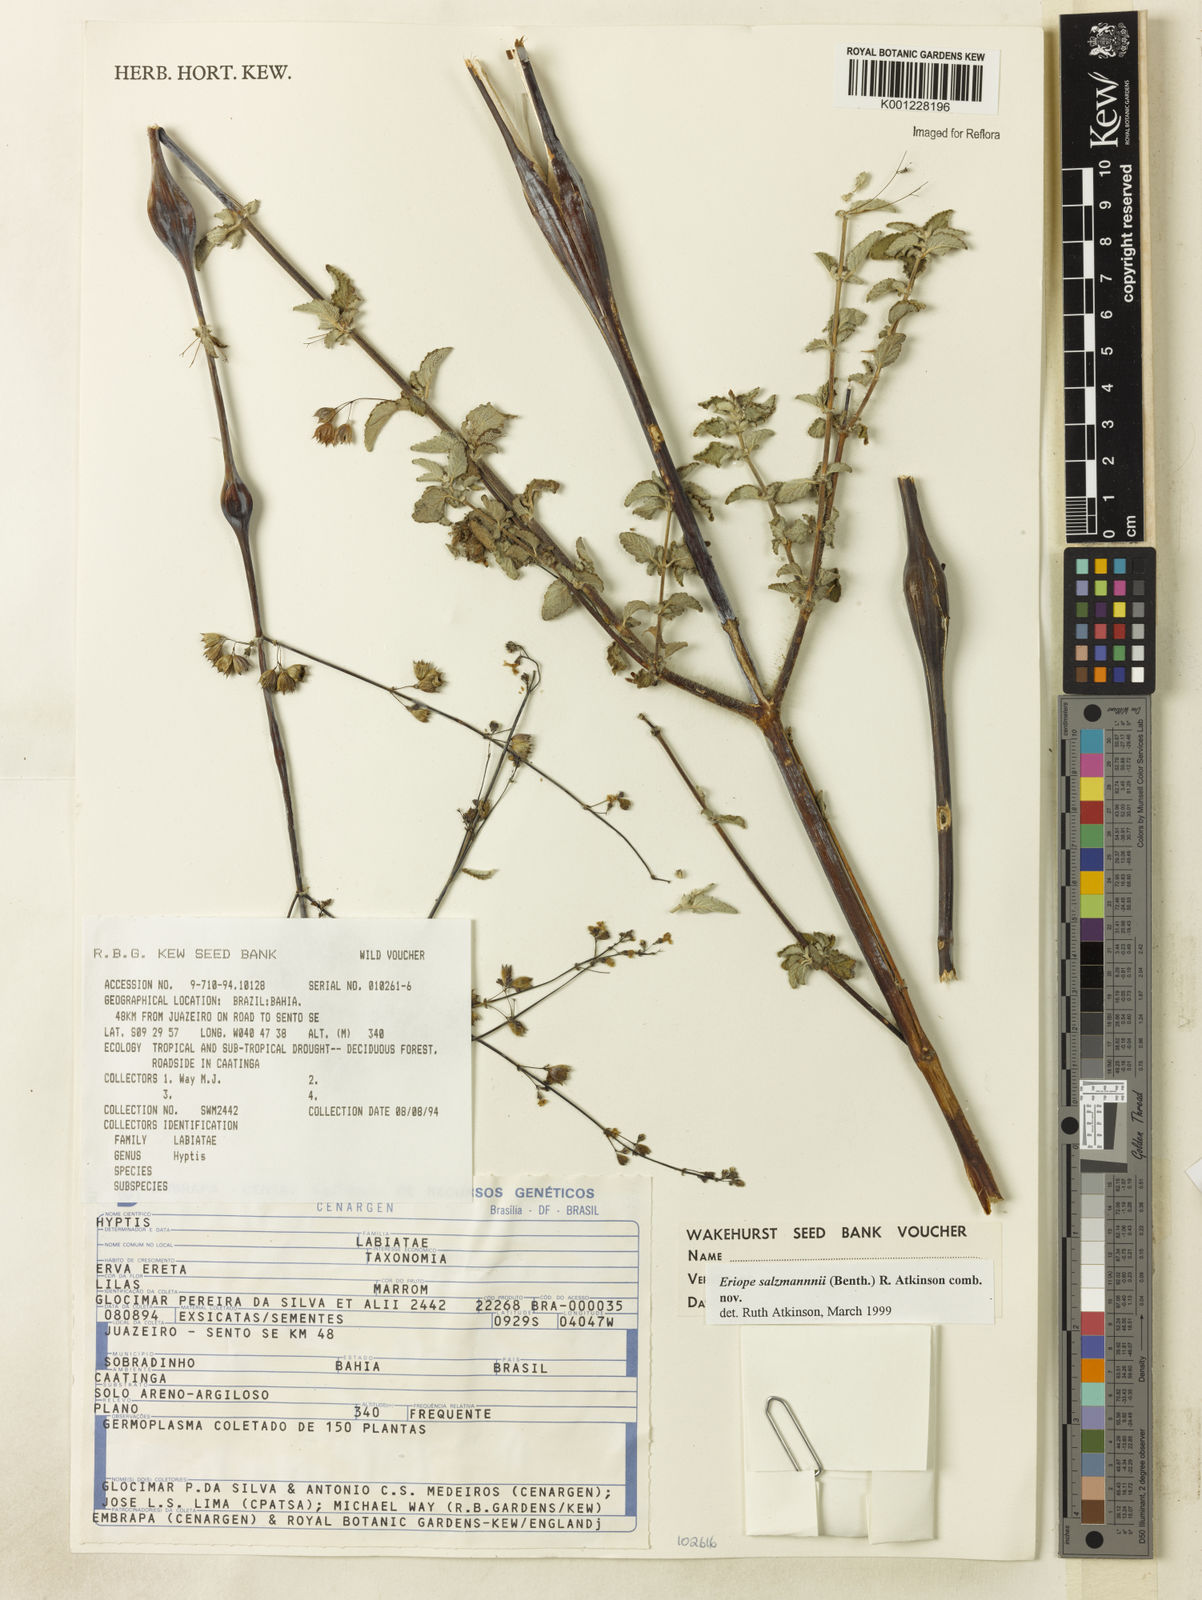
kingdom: Plantae
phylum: Tracheophyta
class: Magnoliopsida
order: Lamiales
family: Lamiaceae
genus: Hypenia
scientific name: Hypenia salzmannii
